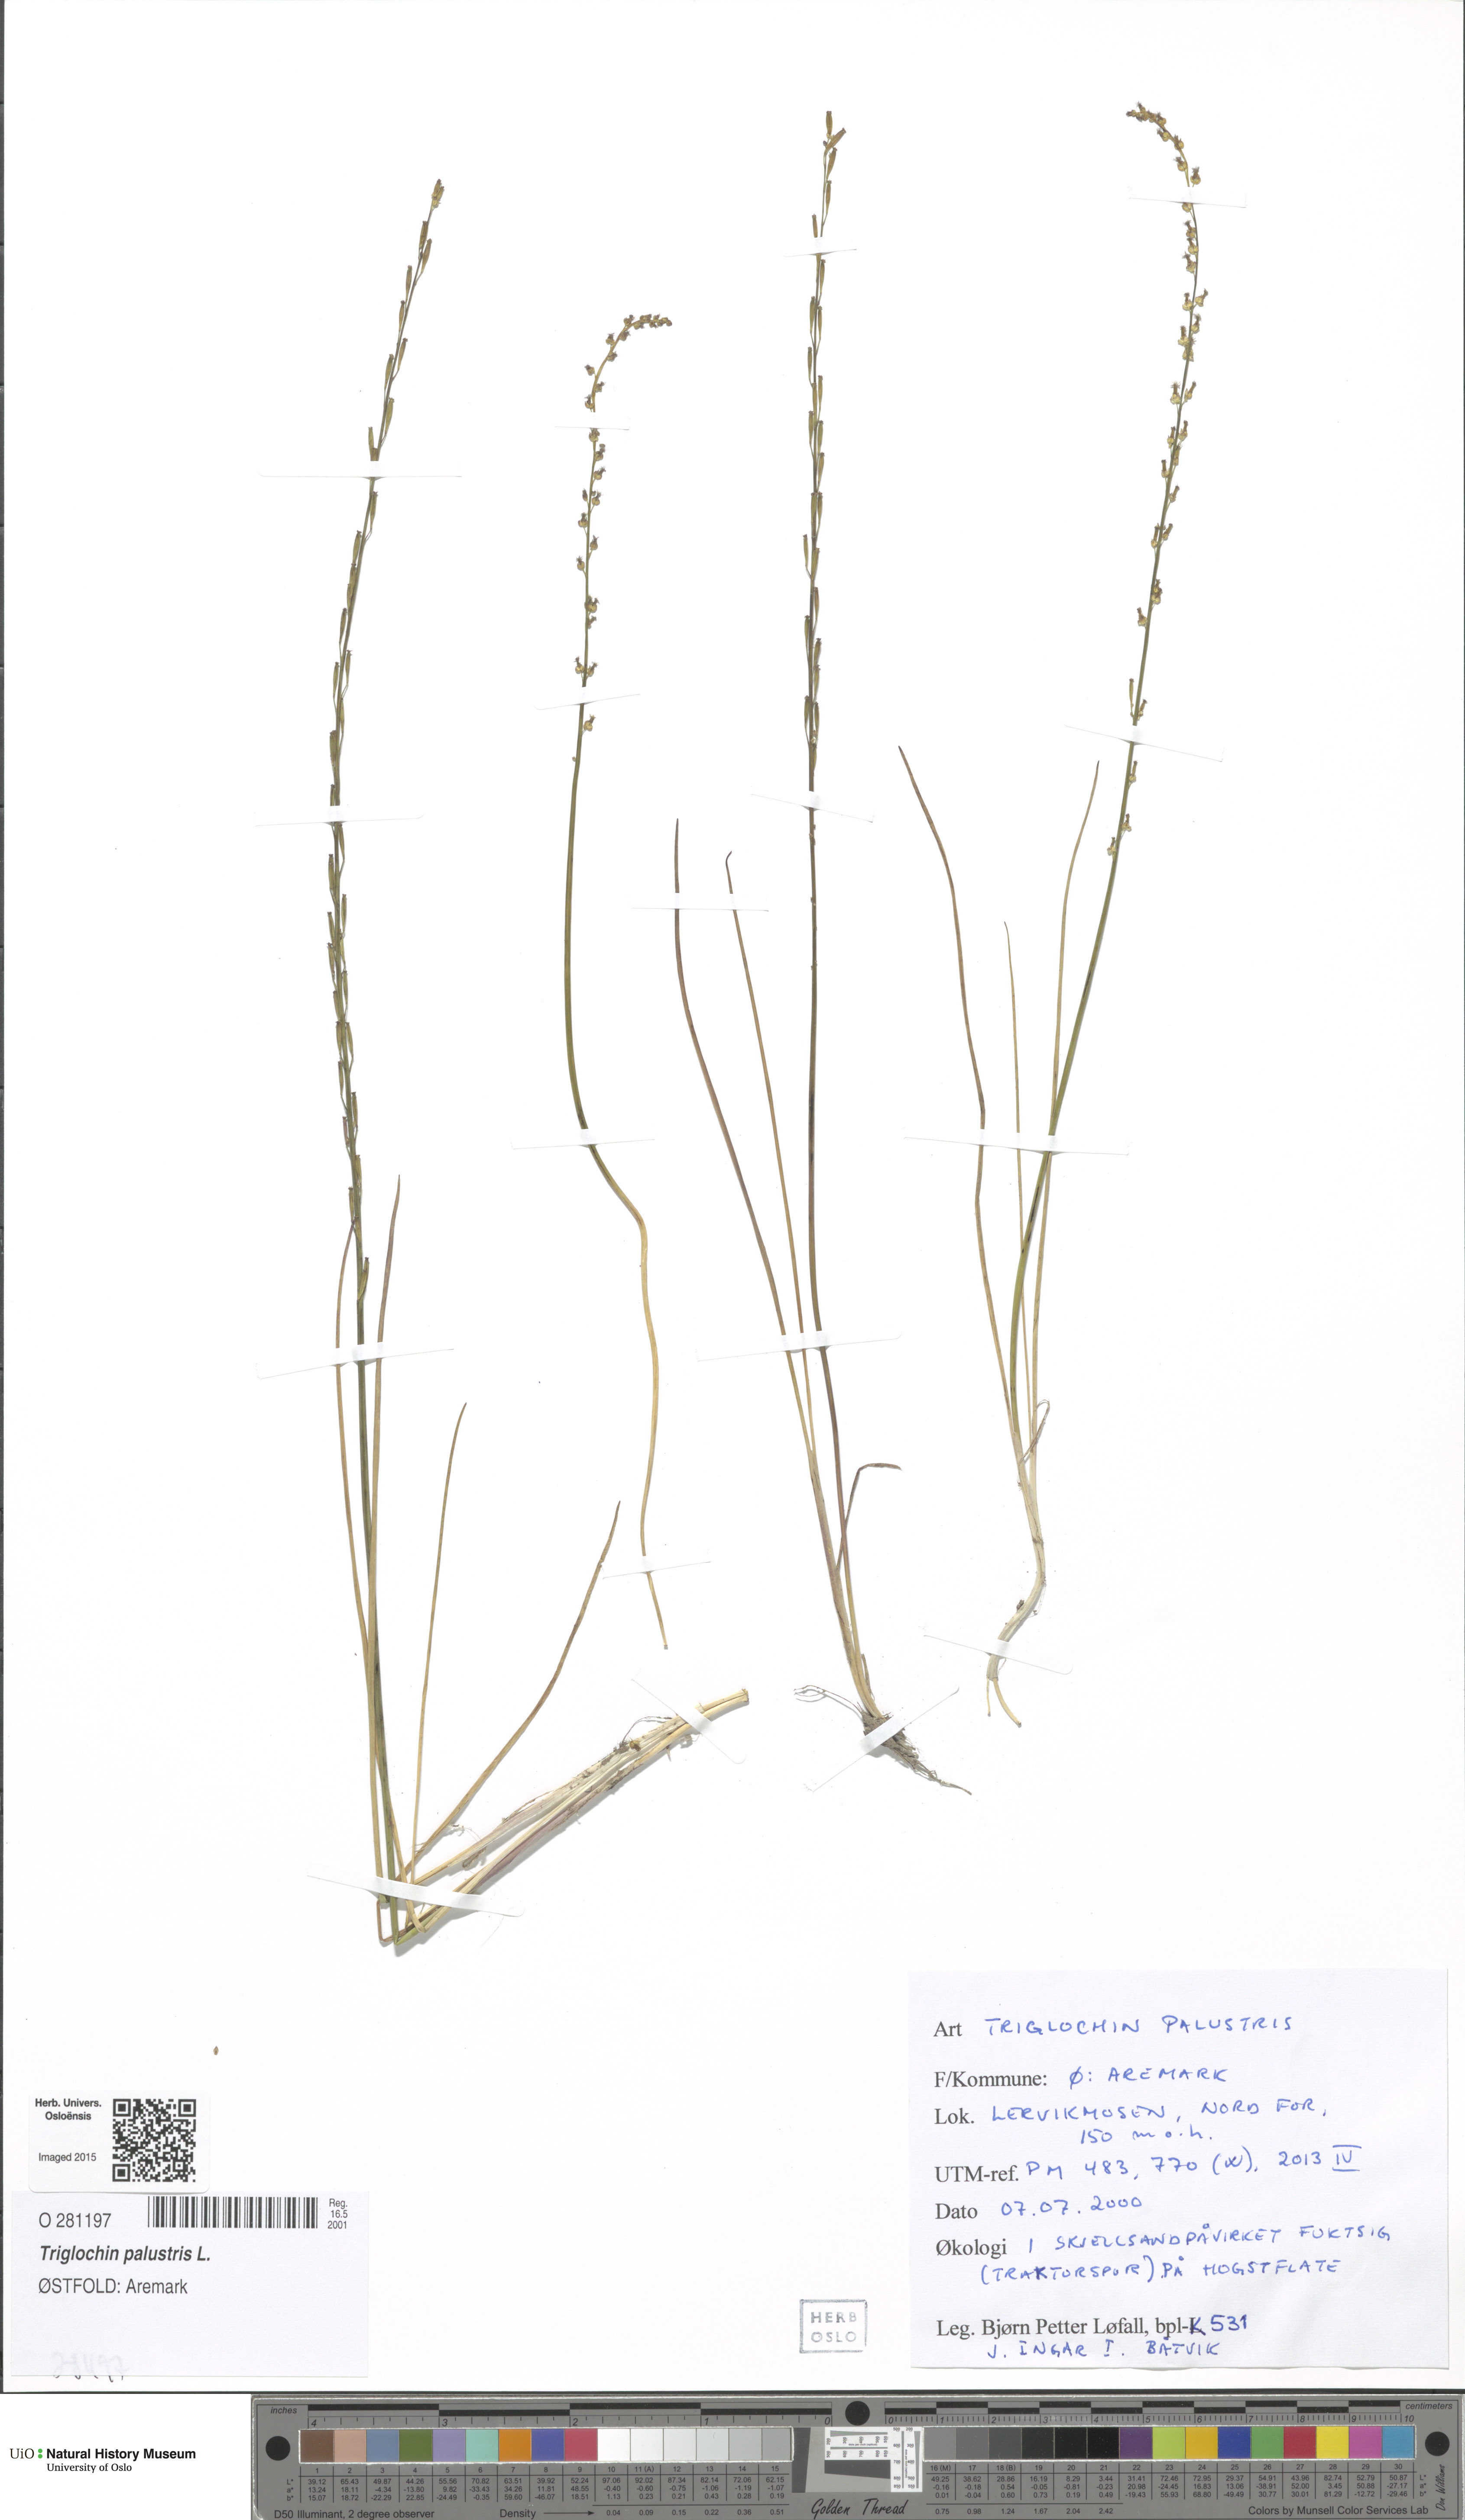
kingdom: Plantae
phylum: Tracheophyta
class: Liliopsida
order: Alismatales
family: Juncaginaceae
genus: Triglochin
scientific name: Triglochin palustris
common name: Marsh arrowgrass
